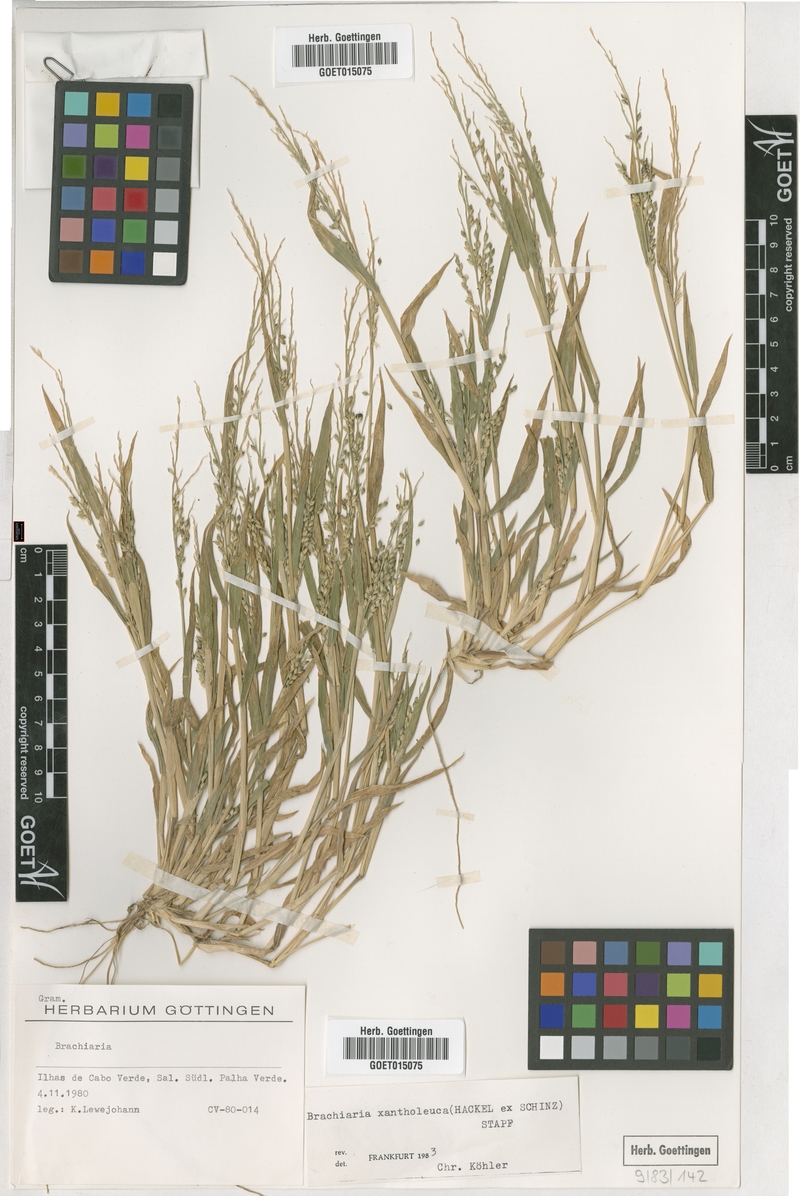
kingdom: Plantae
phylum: Tracheophyta
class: Liliopsida
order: Poales
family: Poaceae
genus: Urochloa
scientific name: Urochloa xantholeuca
